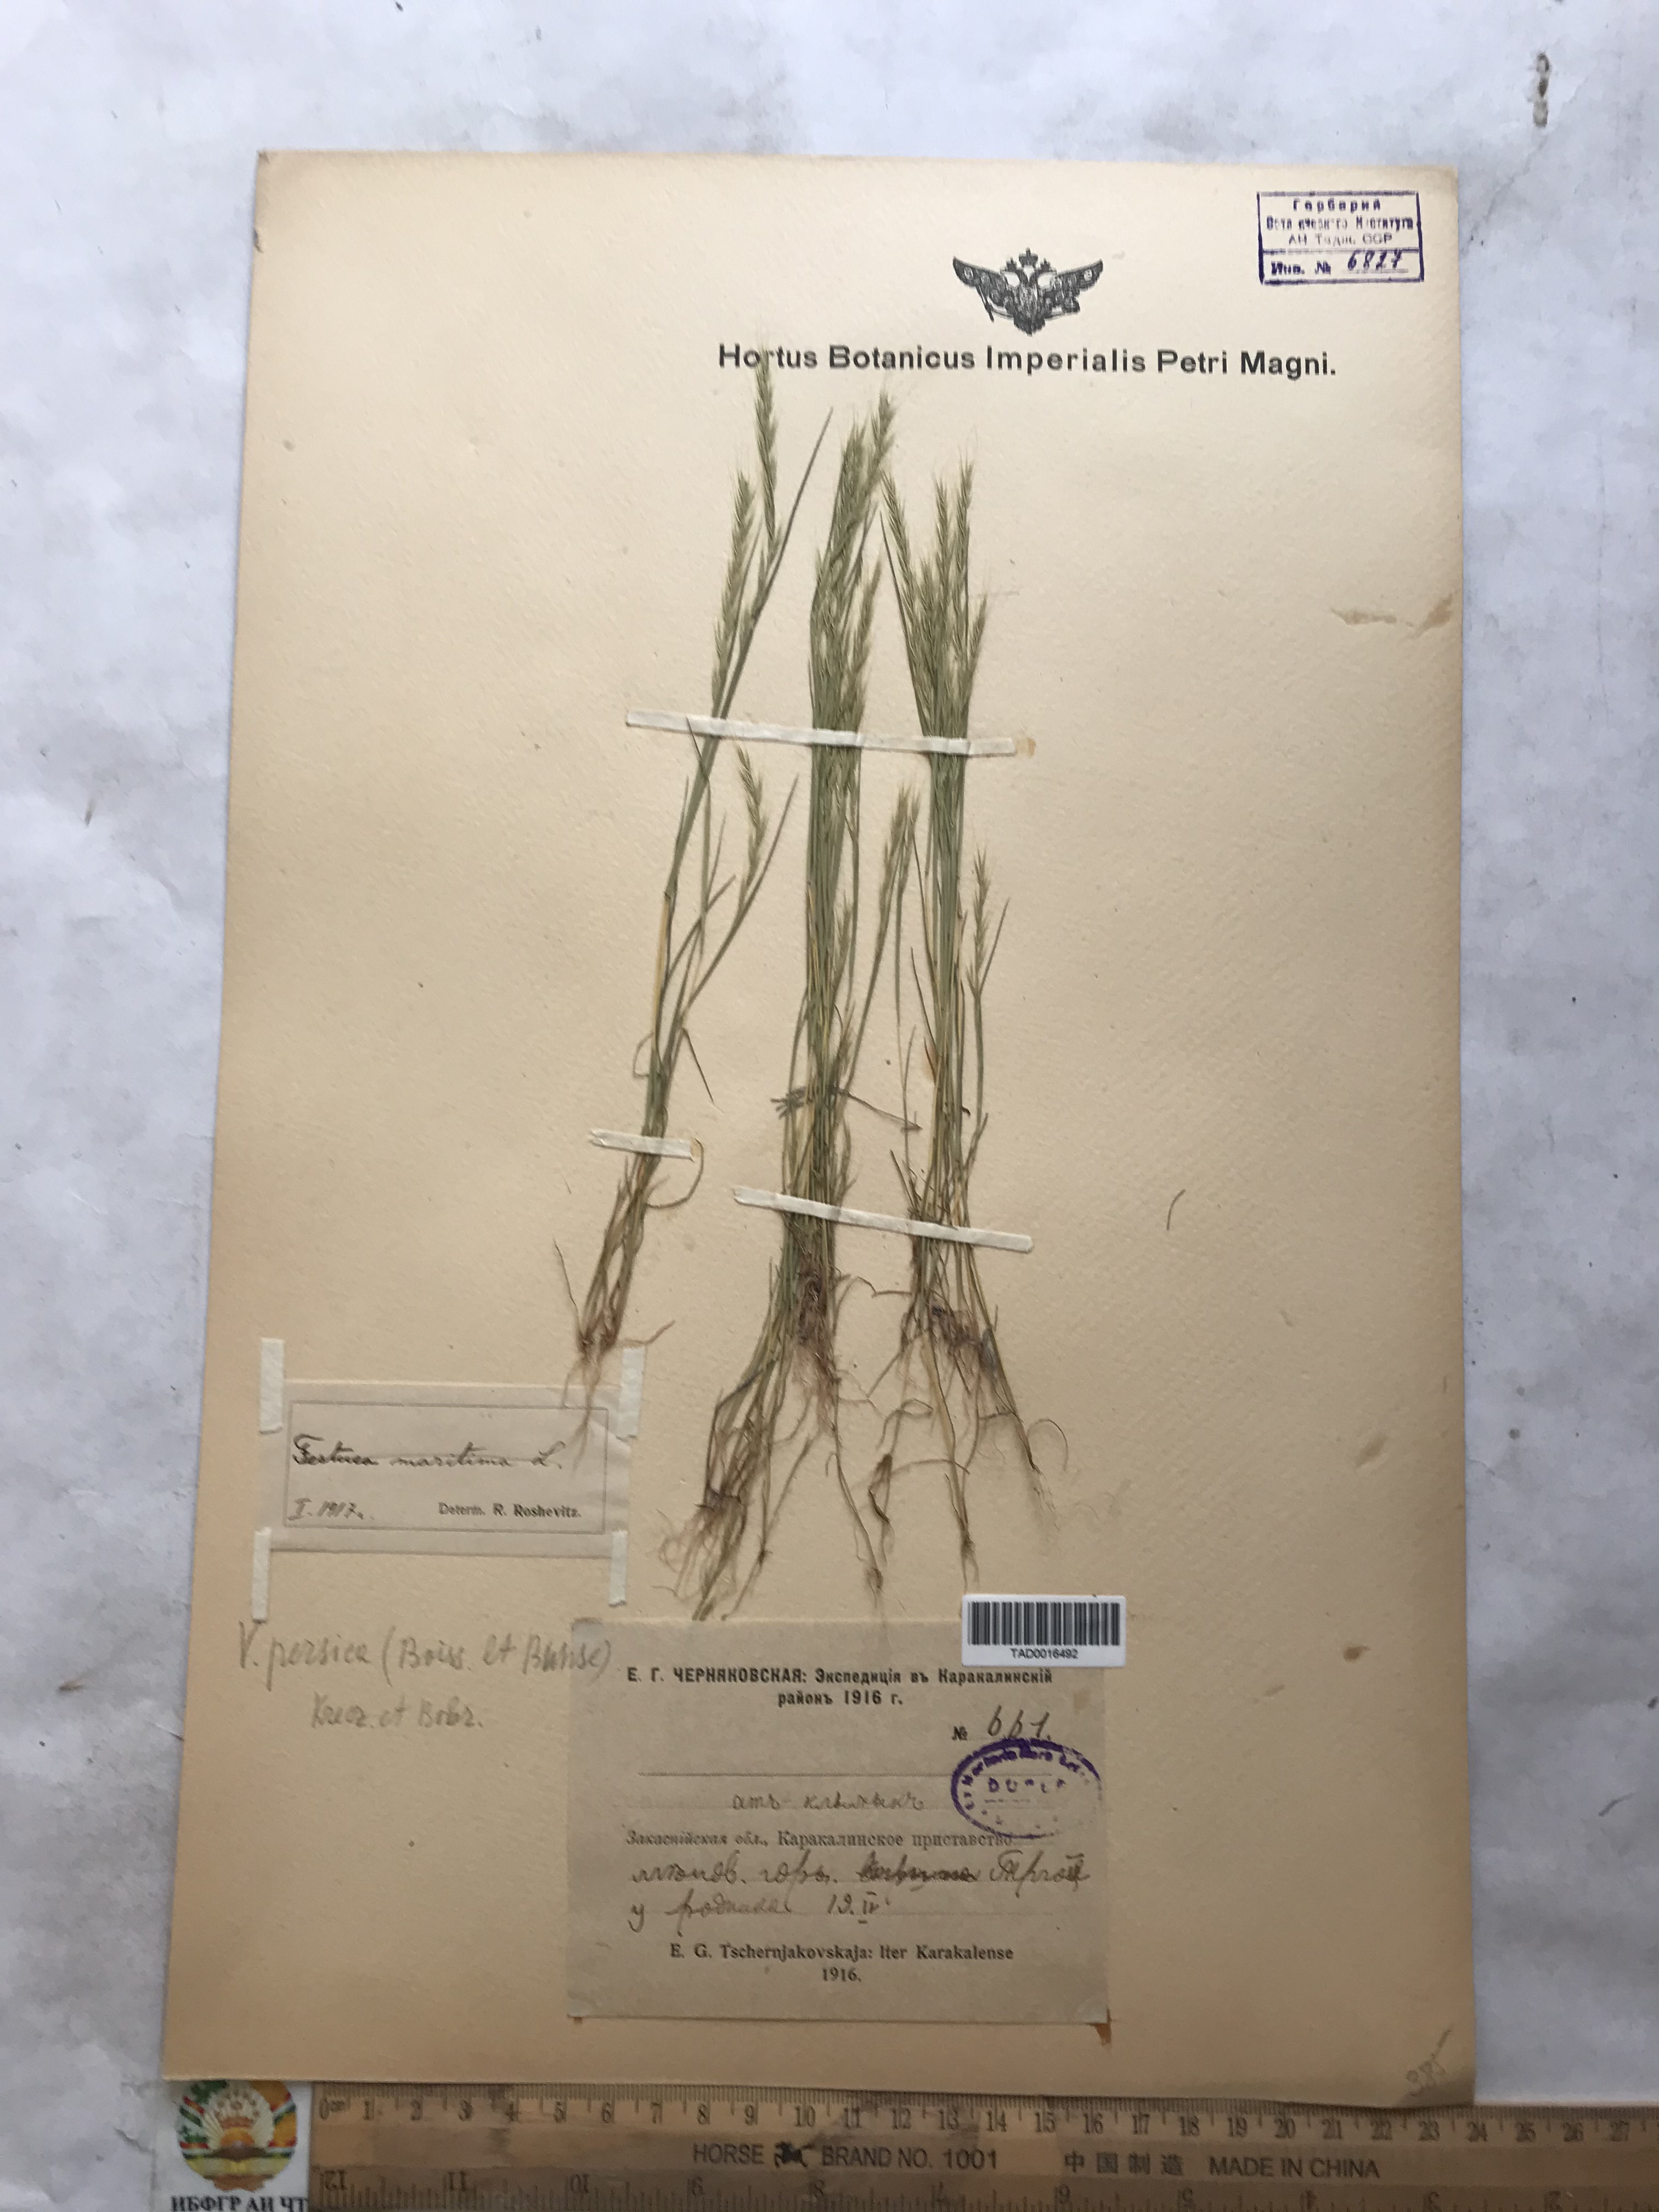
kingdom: Plantae
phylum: Tracheophyta
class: Liliopsida
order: Poales
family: Poaceae
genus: Festuca
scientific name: Festuca Vulpia persica
